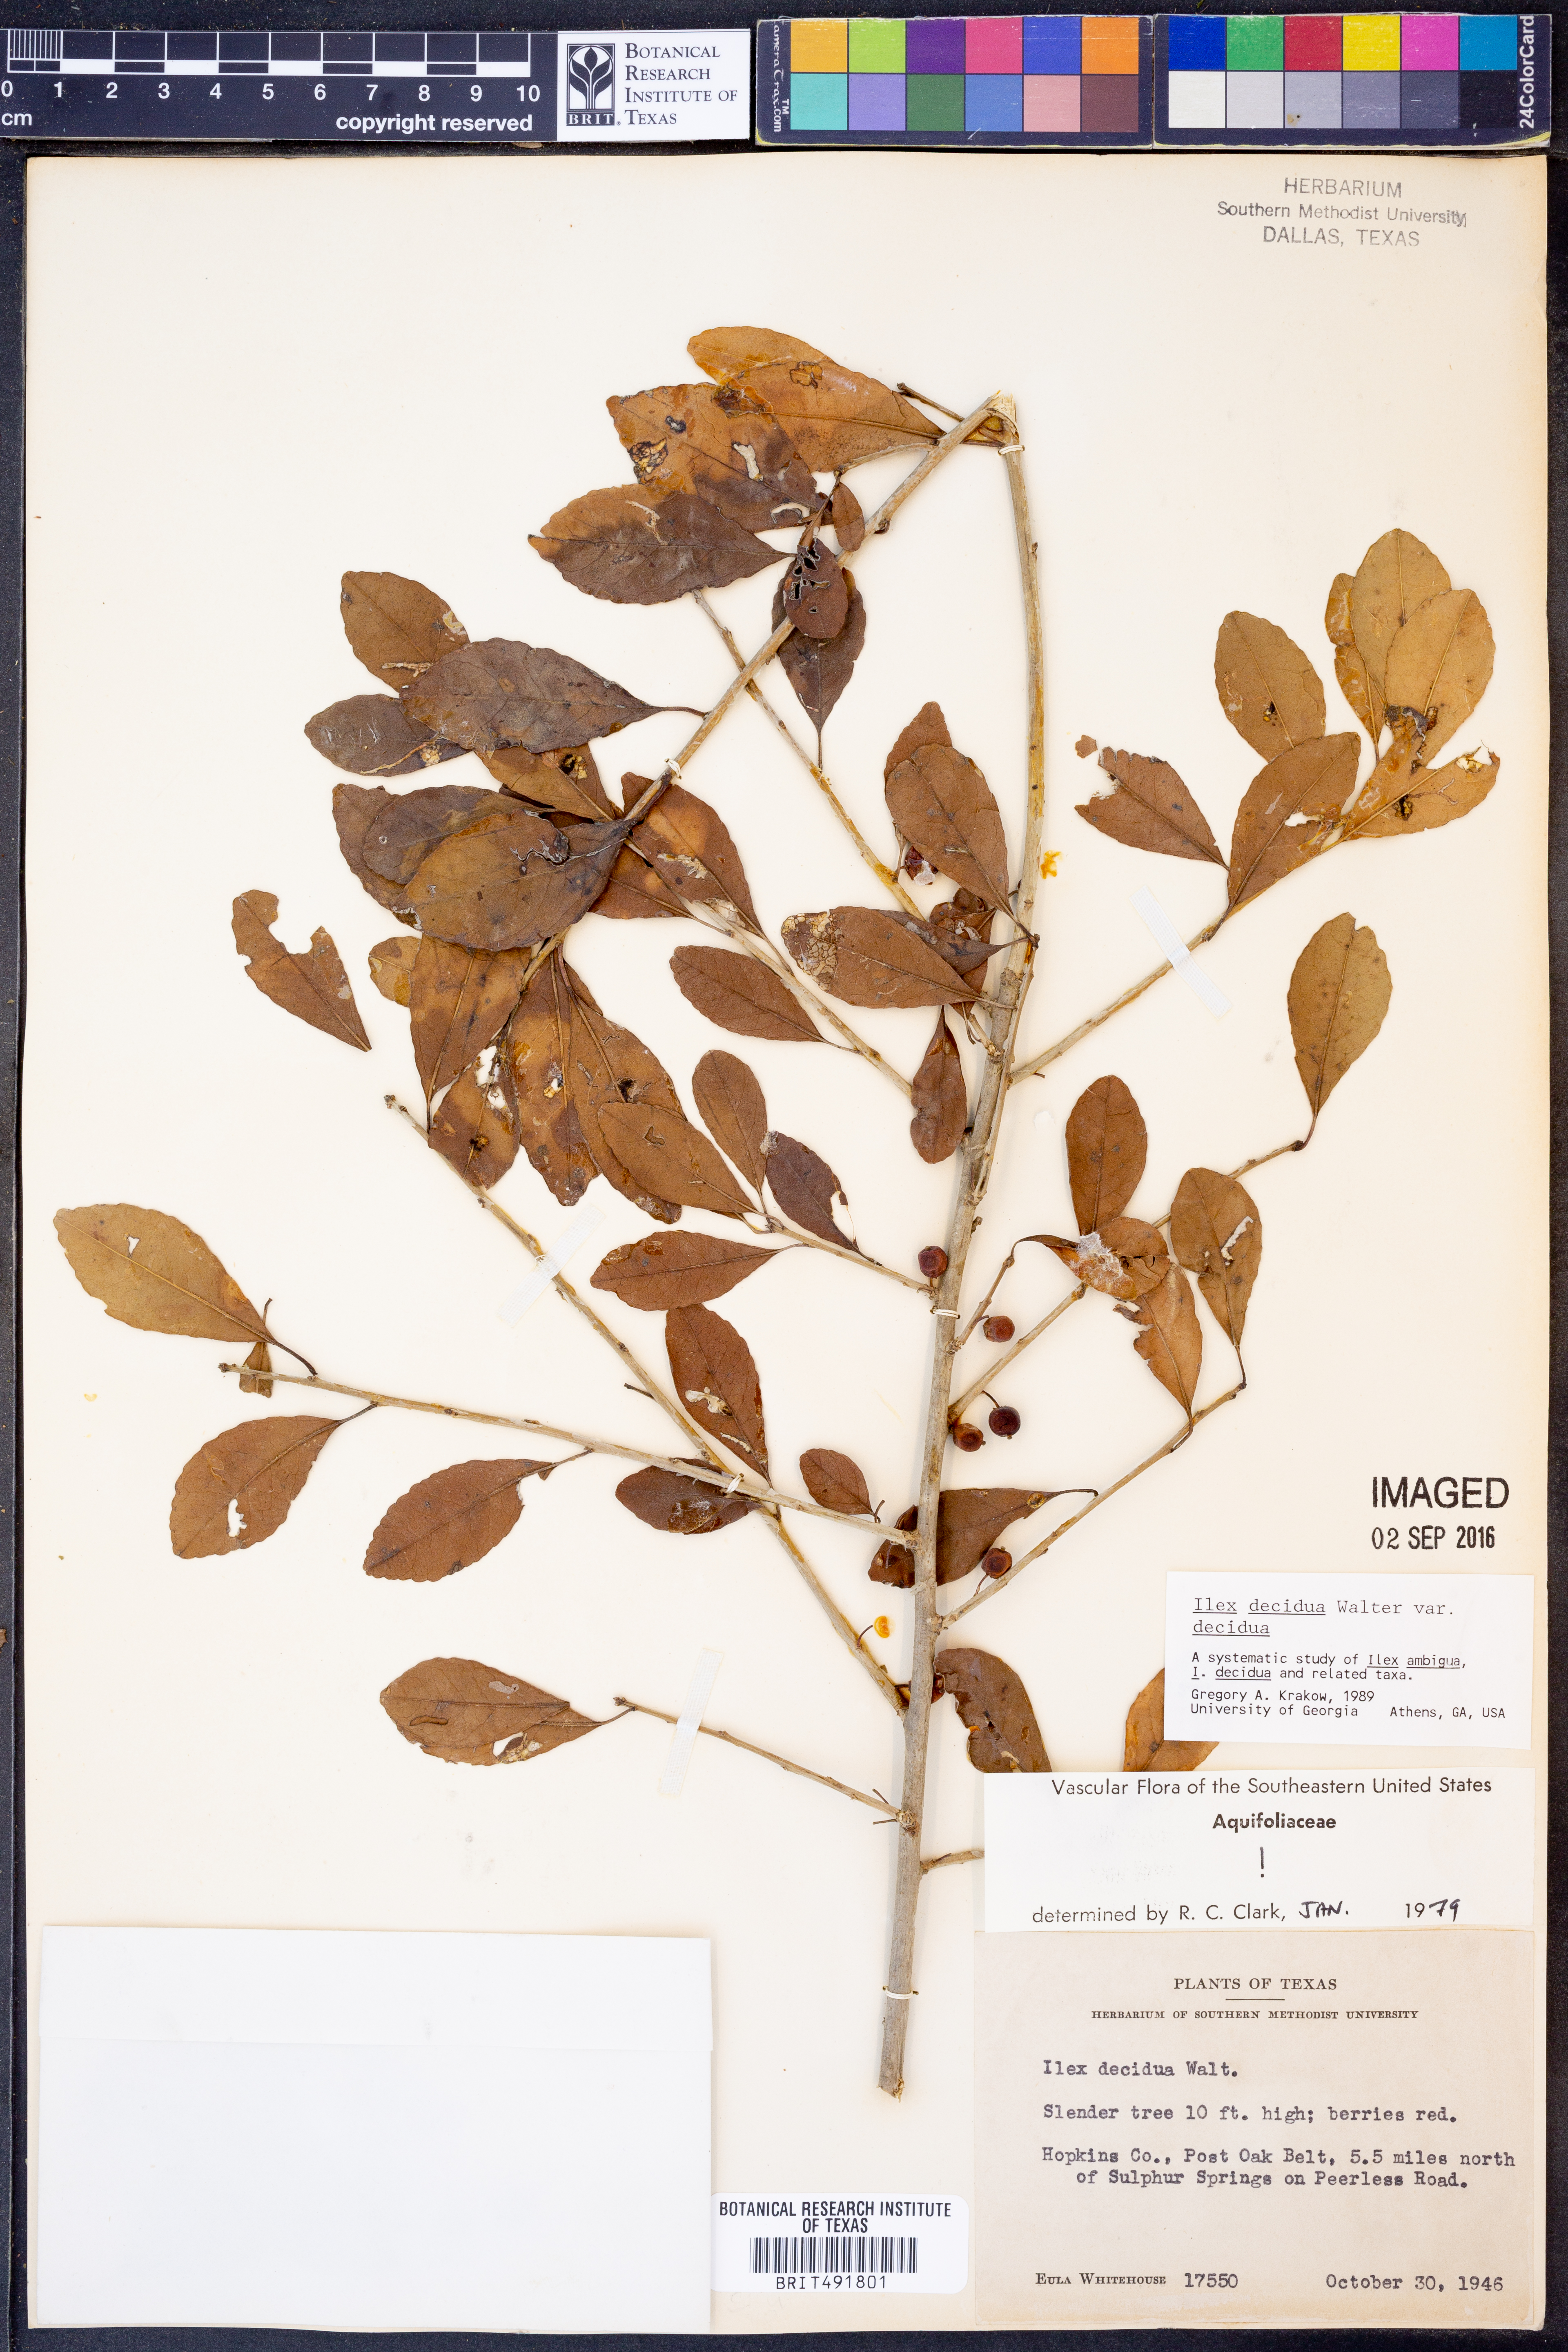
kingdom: Plantae
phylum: Tracheophyta
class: Magnoliopsida
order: Aquifoliales
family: Aquifoliaceae
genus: Ilex
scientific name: Ilex decidua
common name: Possum-haw
